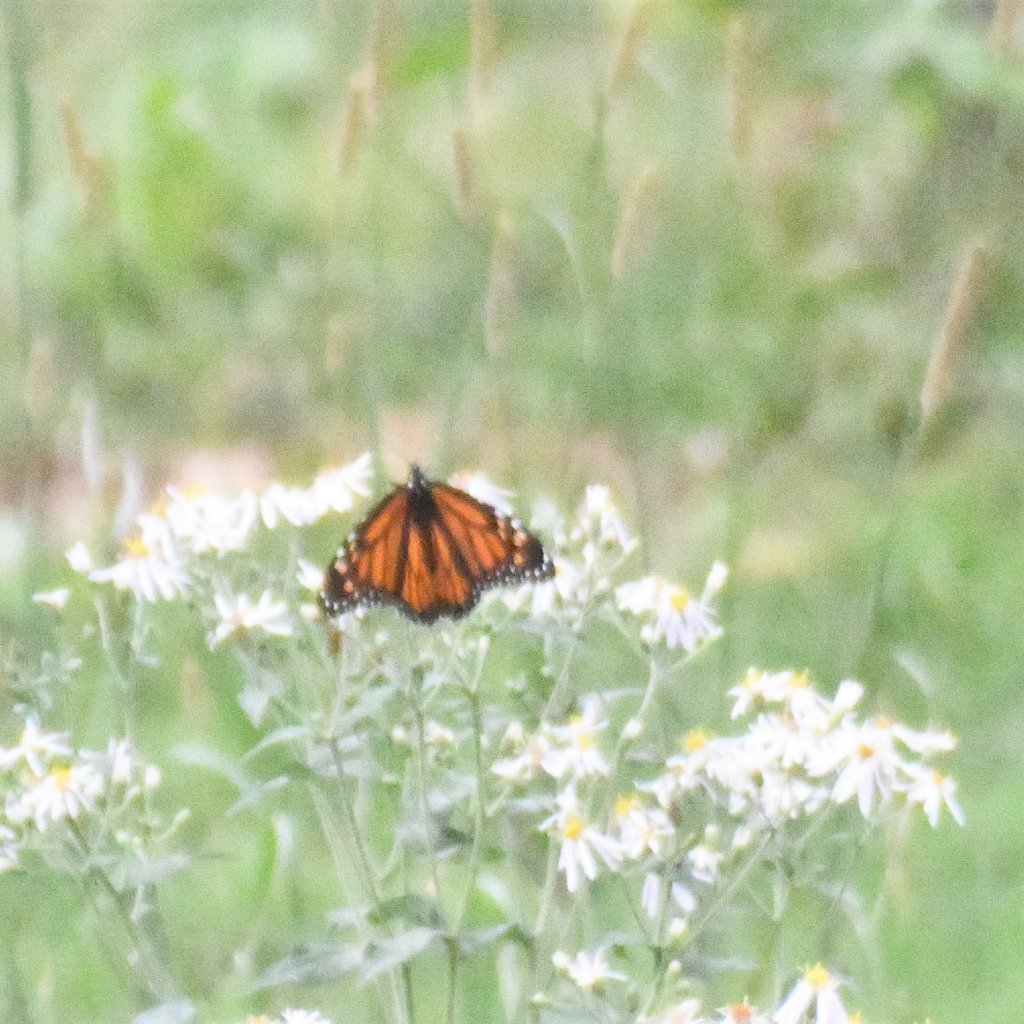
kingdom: Animalia
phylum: Arthropoda
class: Insecta
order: Lepidoptera
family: Nymphalidae
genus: Danaus
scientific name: Danaus plexippus
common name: Monarch
